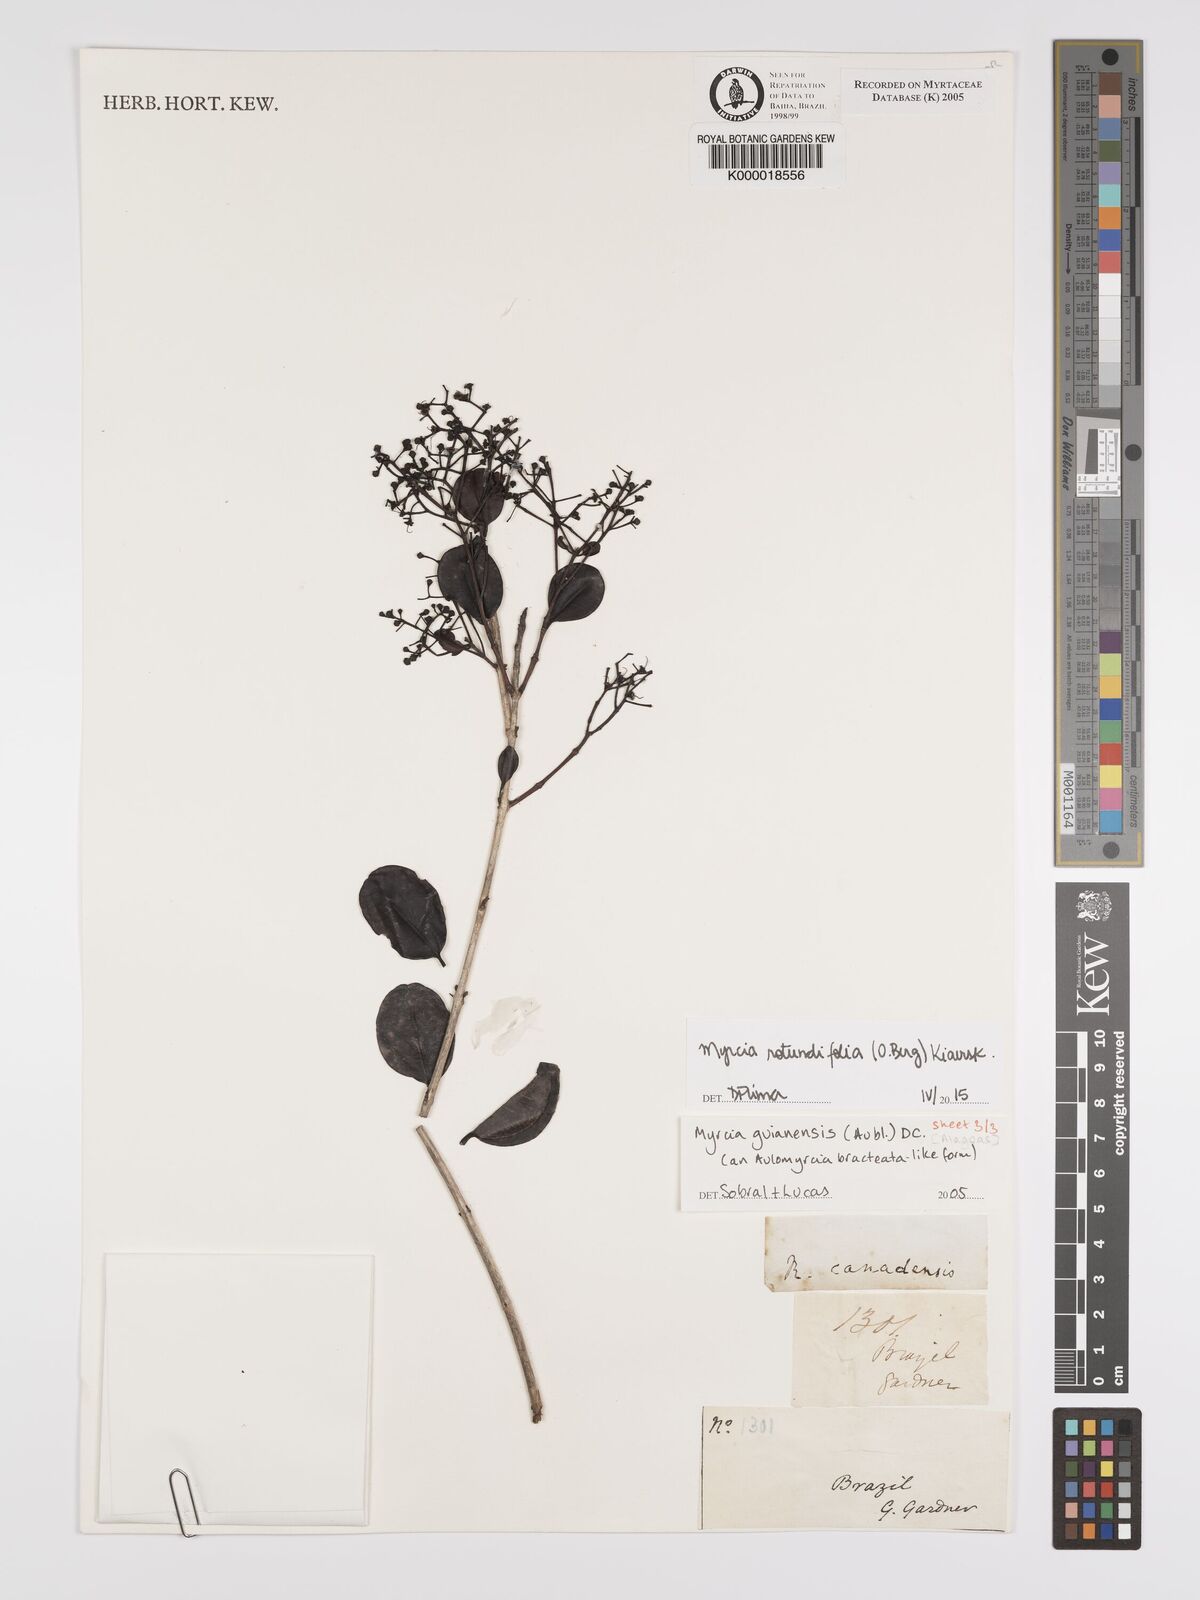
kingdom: Plantae
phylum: Tracheophyta
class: Magnoliopsida
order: Myrtales
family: Myrtaceae
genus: Myrcia
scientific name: Myrcia rotundifolia
